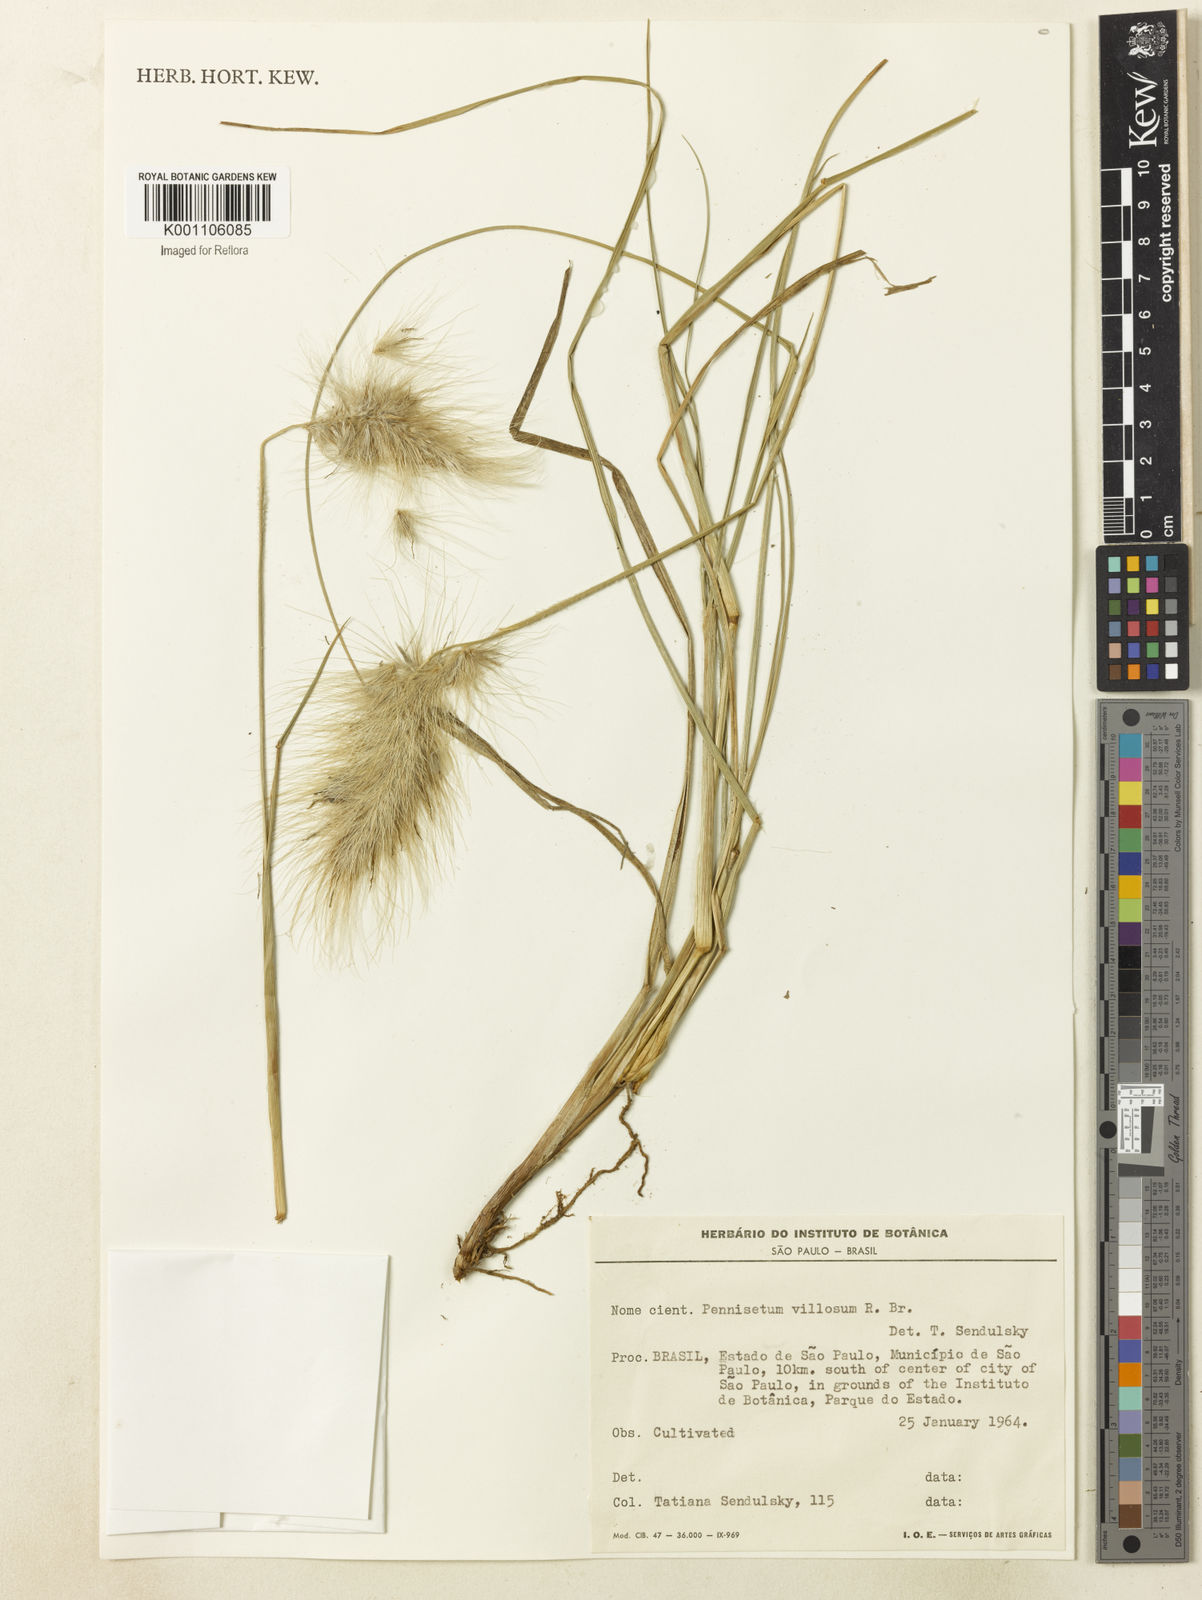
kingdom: Plantae
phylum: Tracheophyta
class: Liliopsida
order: Poales
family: Poaceae
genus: Cenchrus
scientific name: Cenchrus longisetus
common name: Feathertop
